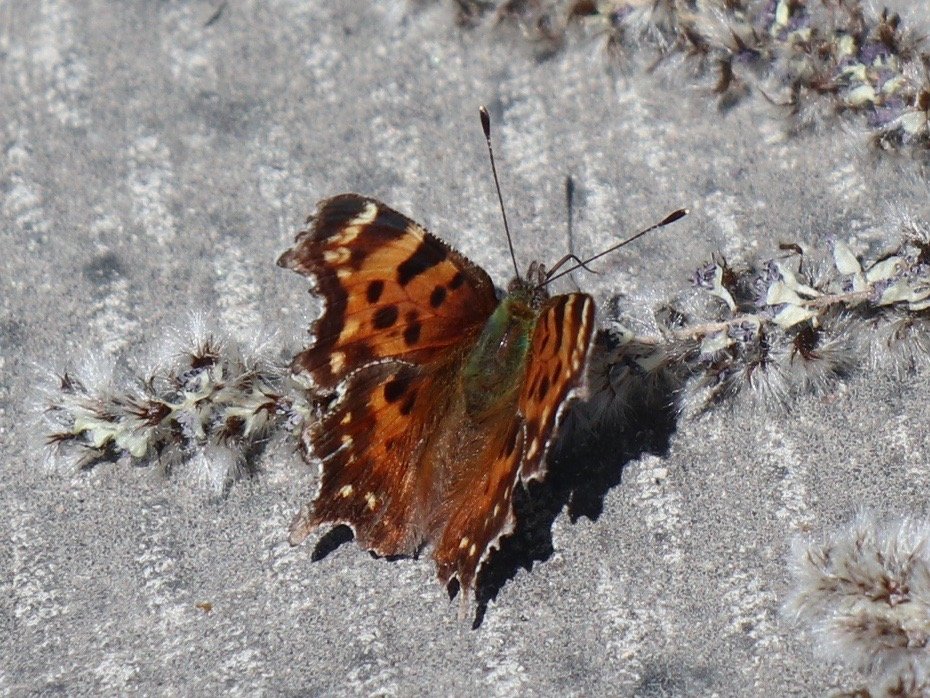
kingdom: Animalia
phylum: Arthropoda
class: Insecta
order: Lepidoptera
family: Nymphalidae
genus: Polygonia
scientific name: Polygonia faunus
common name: Green Comma
